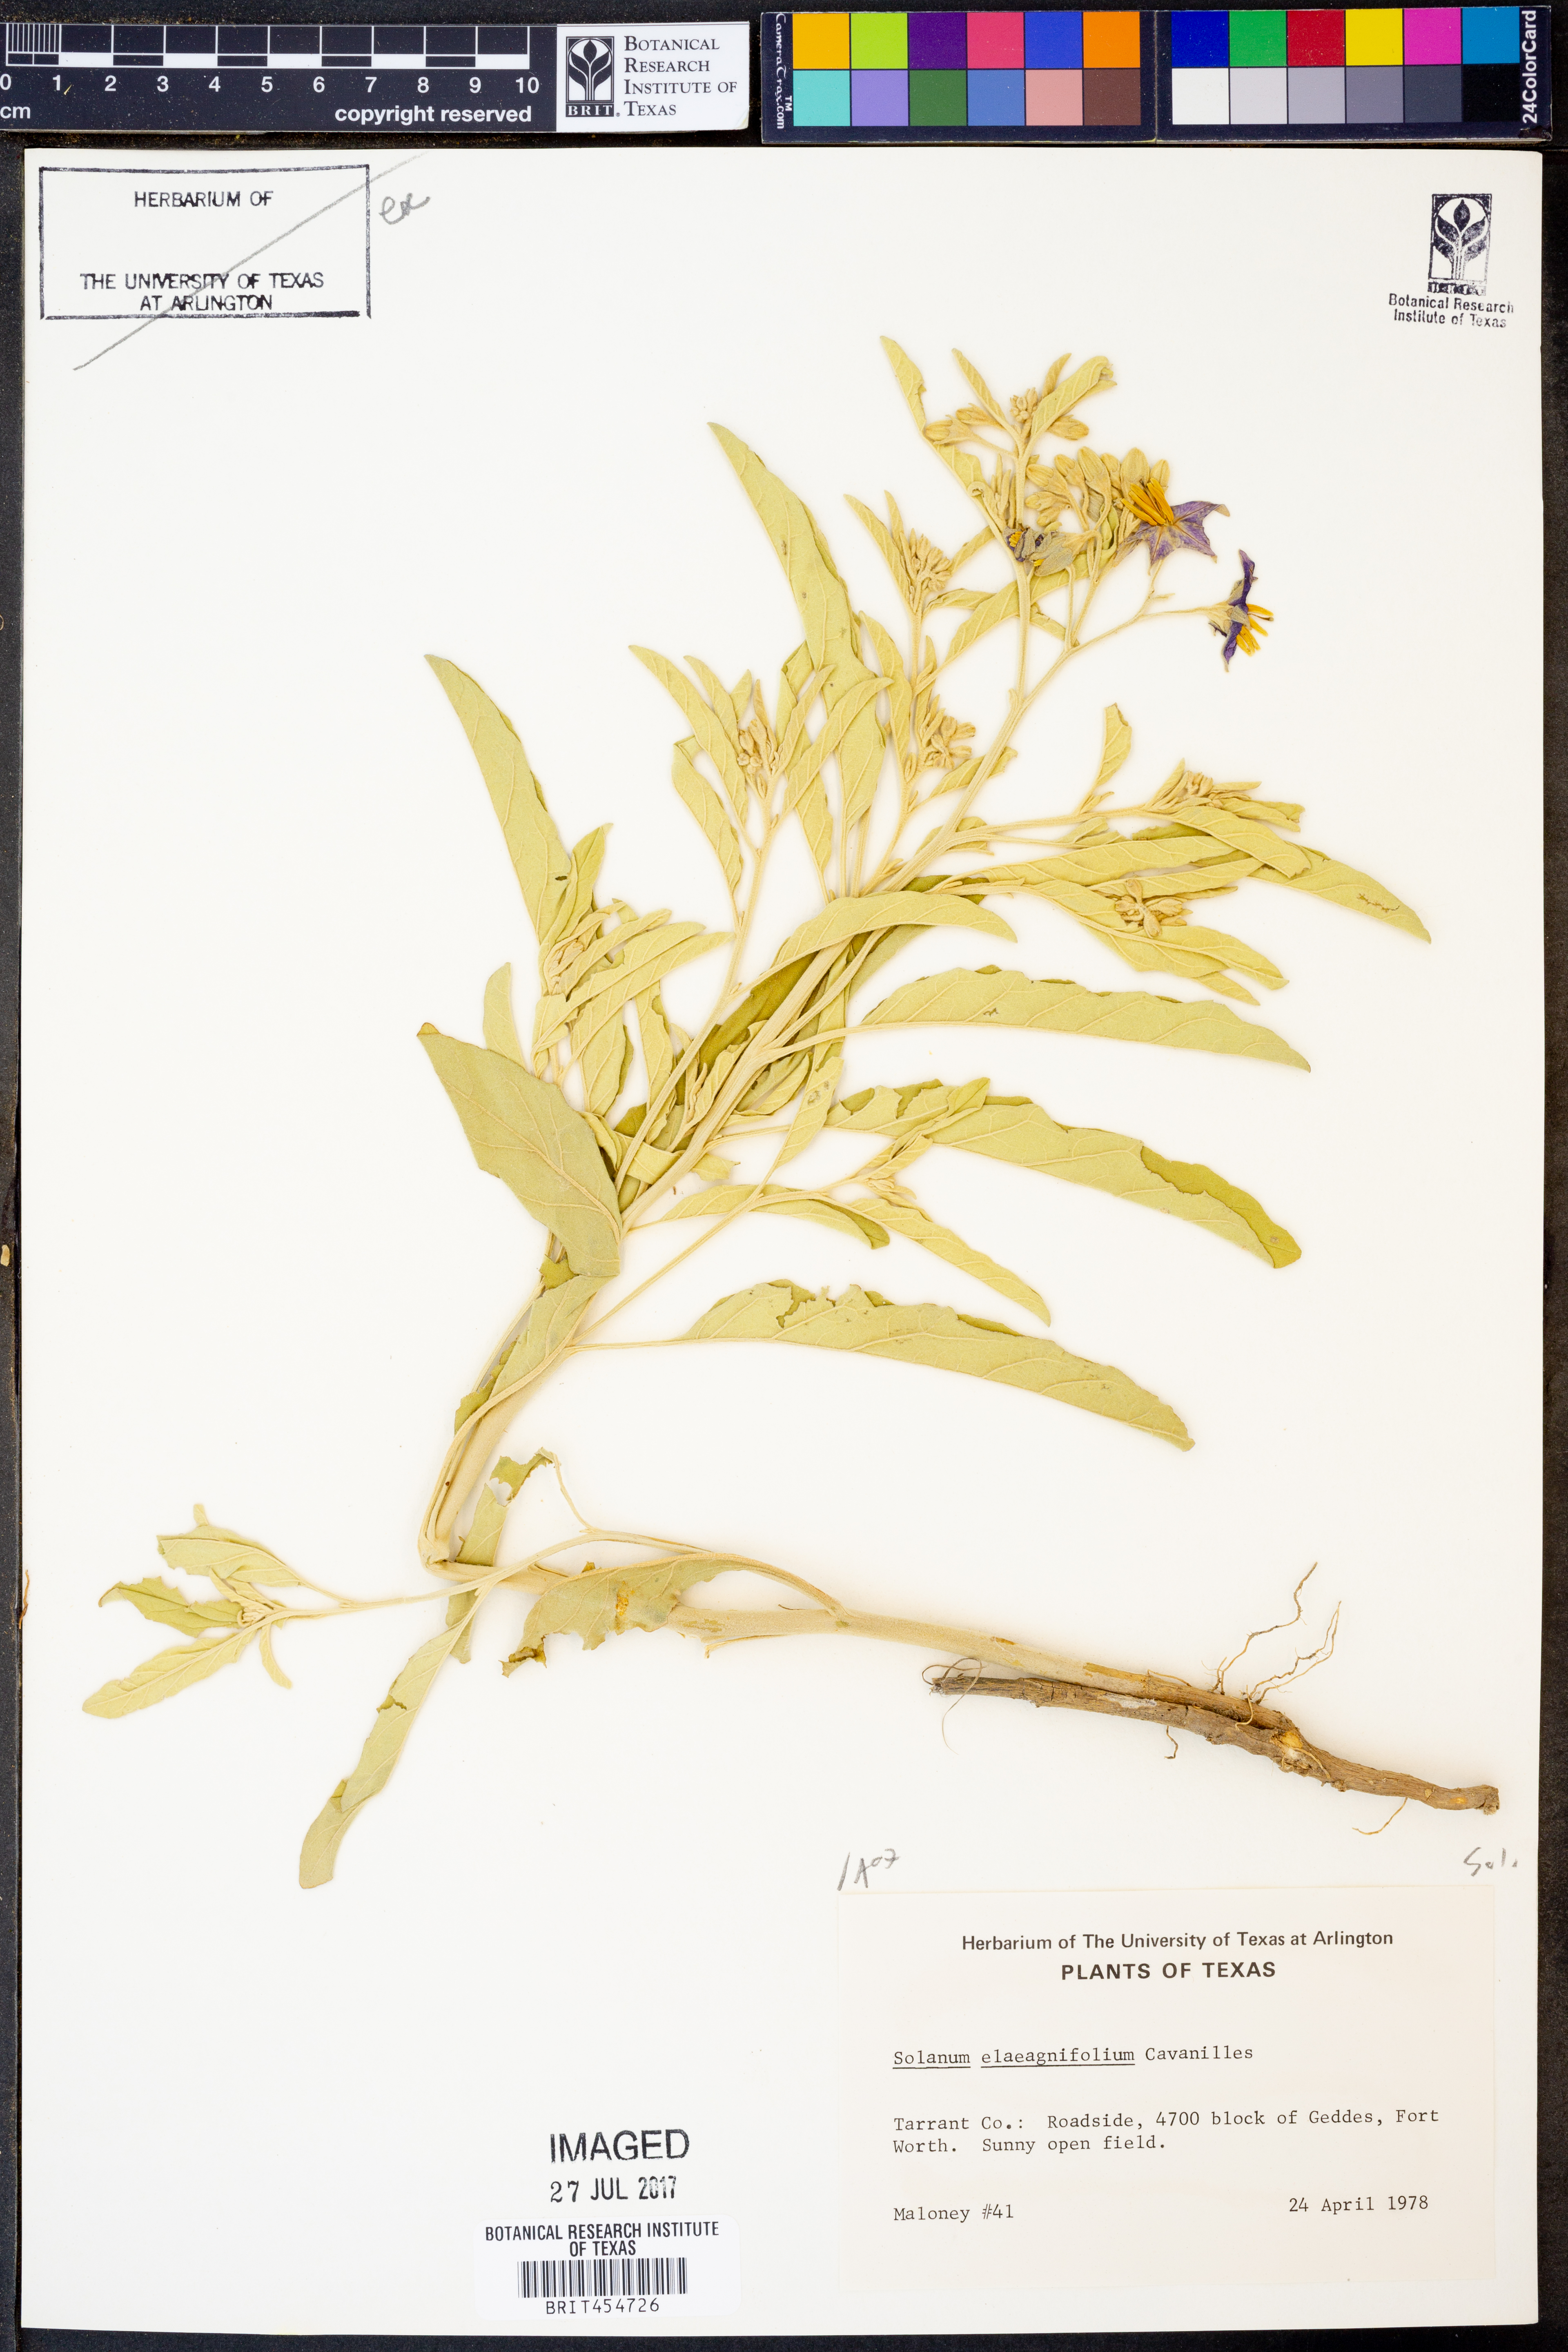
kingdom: Plantae
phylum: Tracheophyta
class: Magnoliopsida
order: Solanales
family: Solanaceae
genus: Solanum
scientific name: Solanum elaeagnifolium
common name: Silverleaf nightshade
